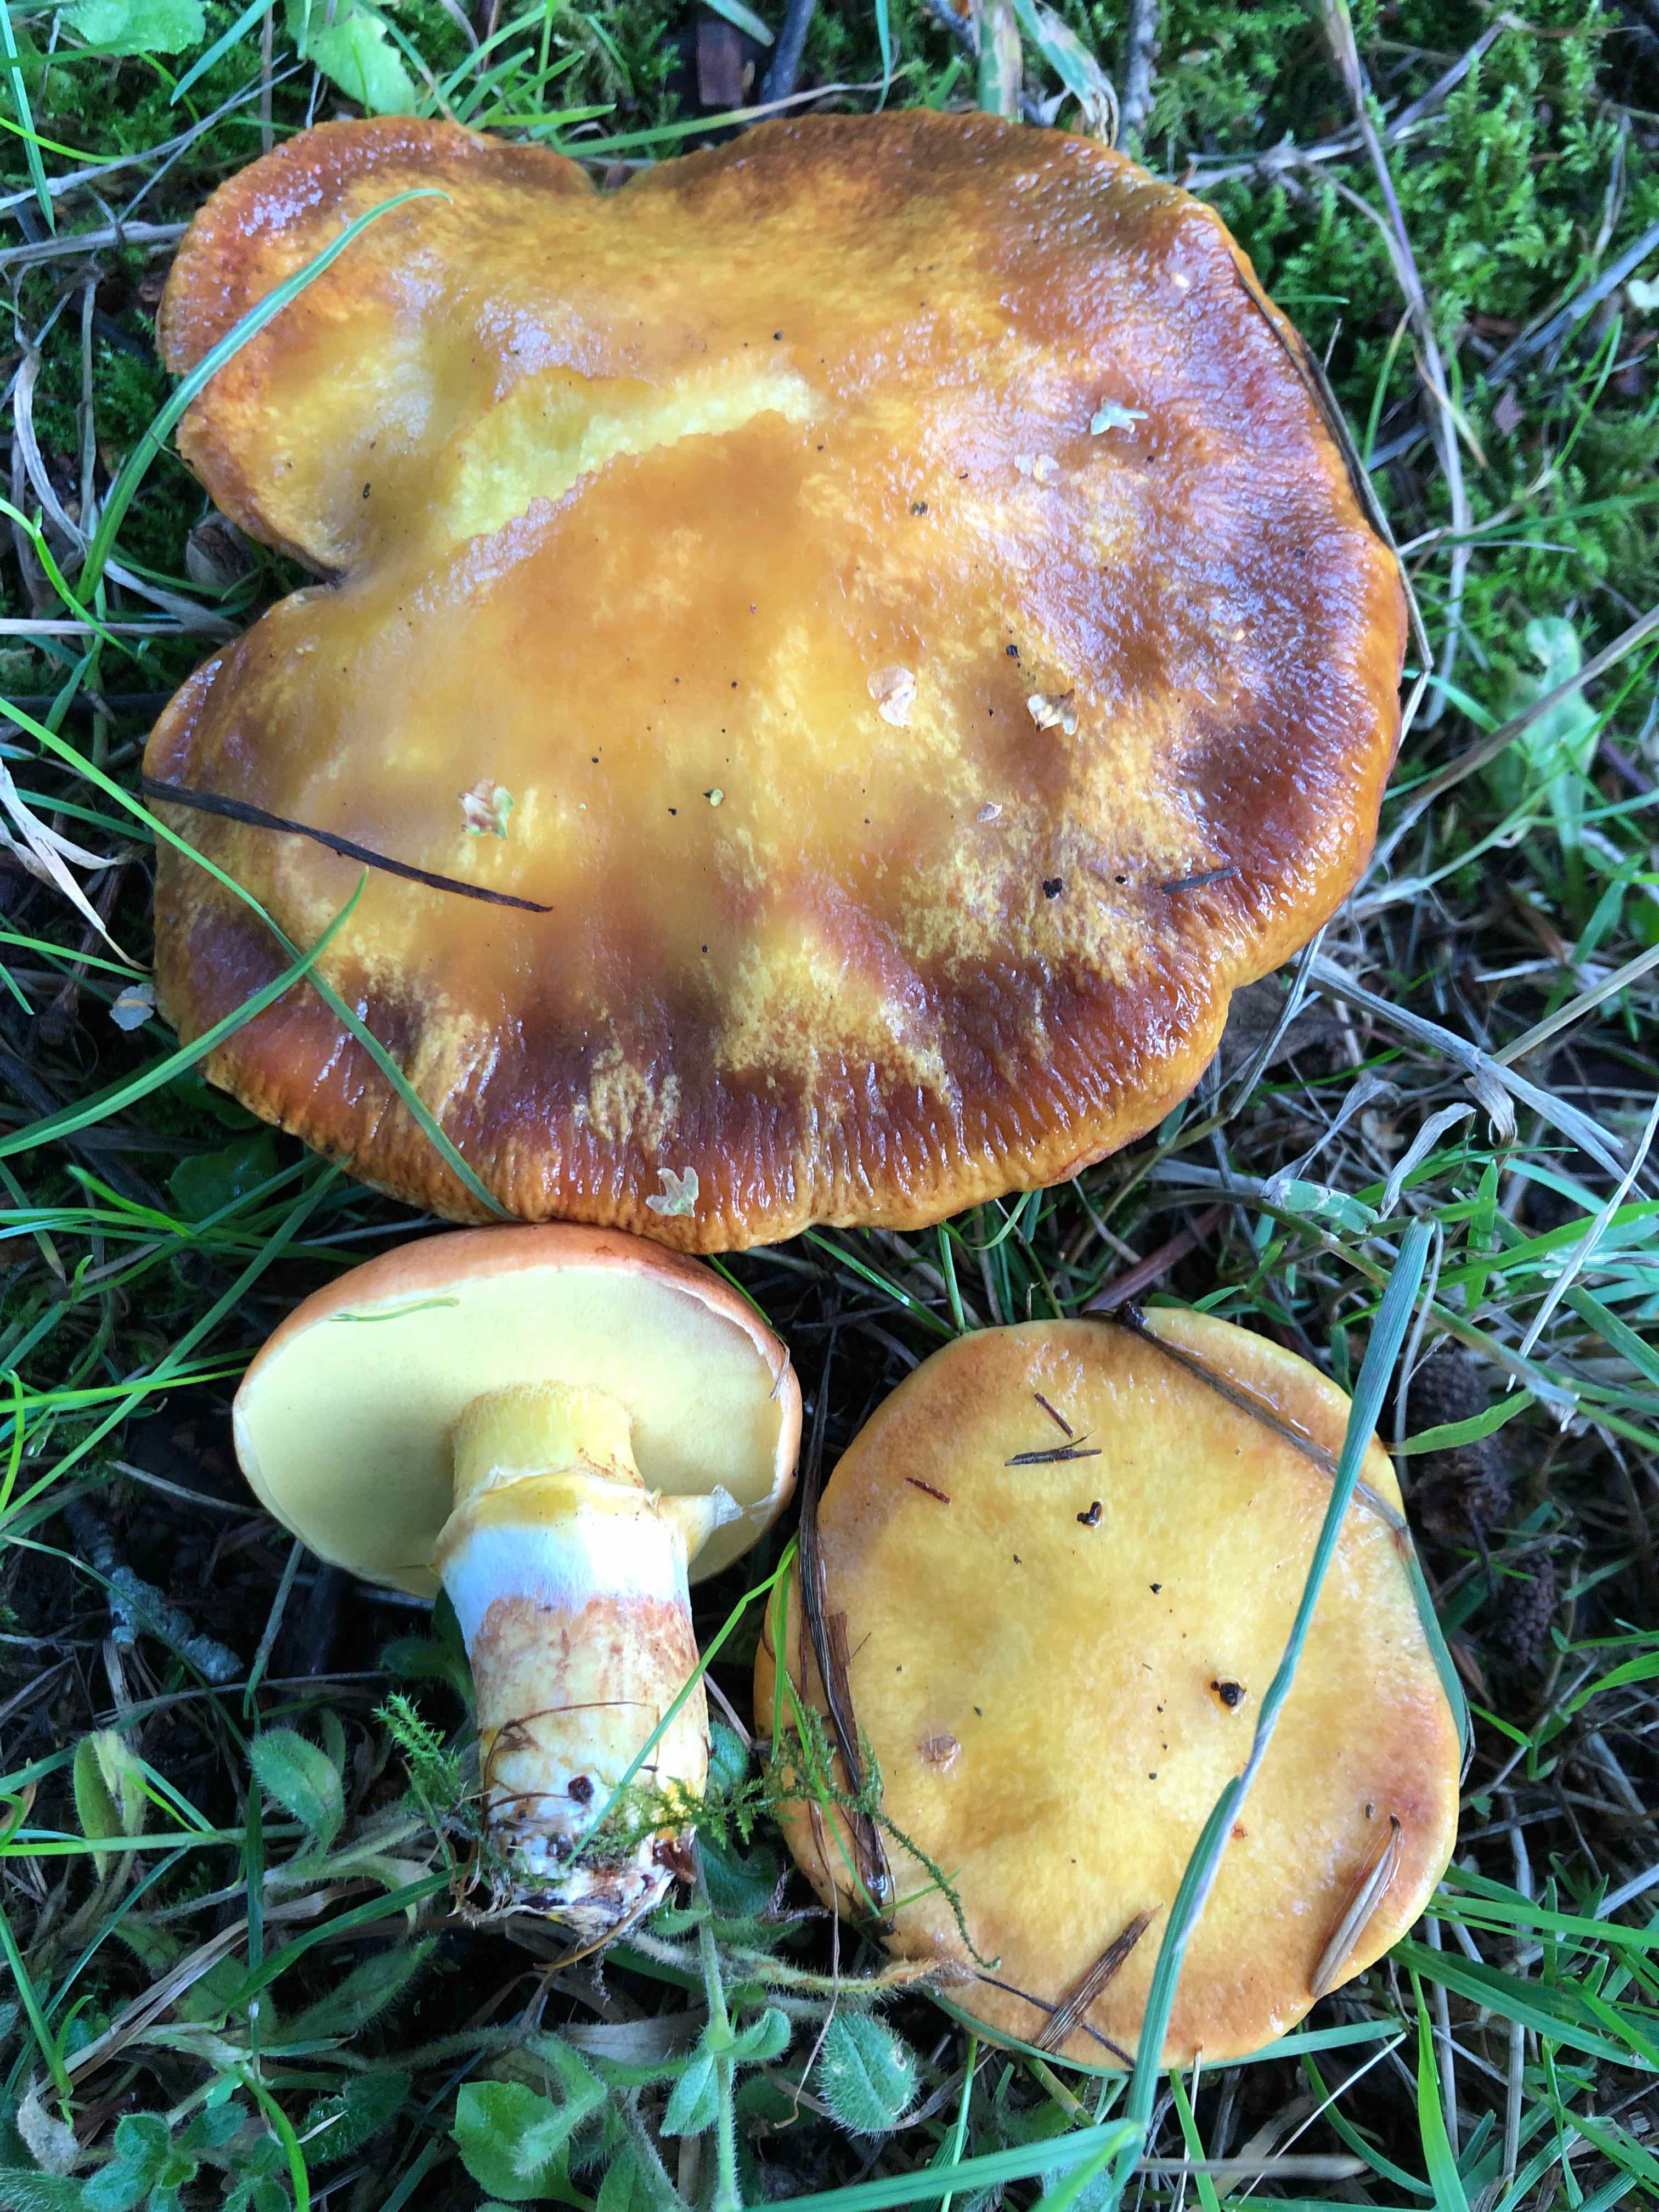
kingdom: Fungi
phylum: Basidiomycota
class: Agaricomycetes
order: Boletales
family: Suillaceae
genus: Suillus
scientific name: Suillus grevillei
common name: lærke-slimrørhat
